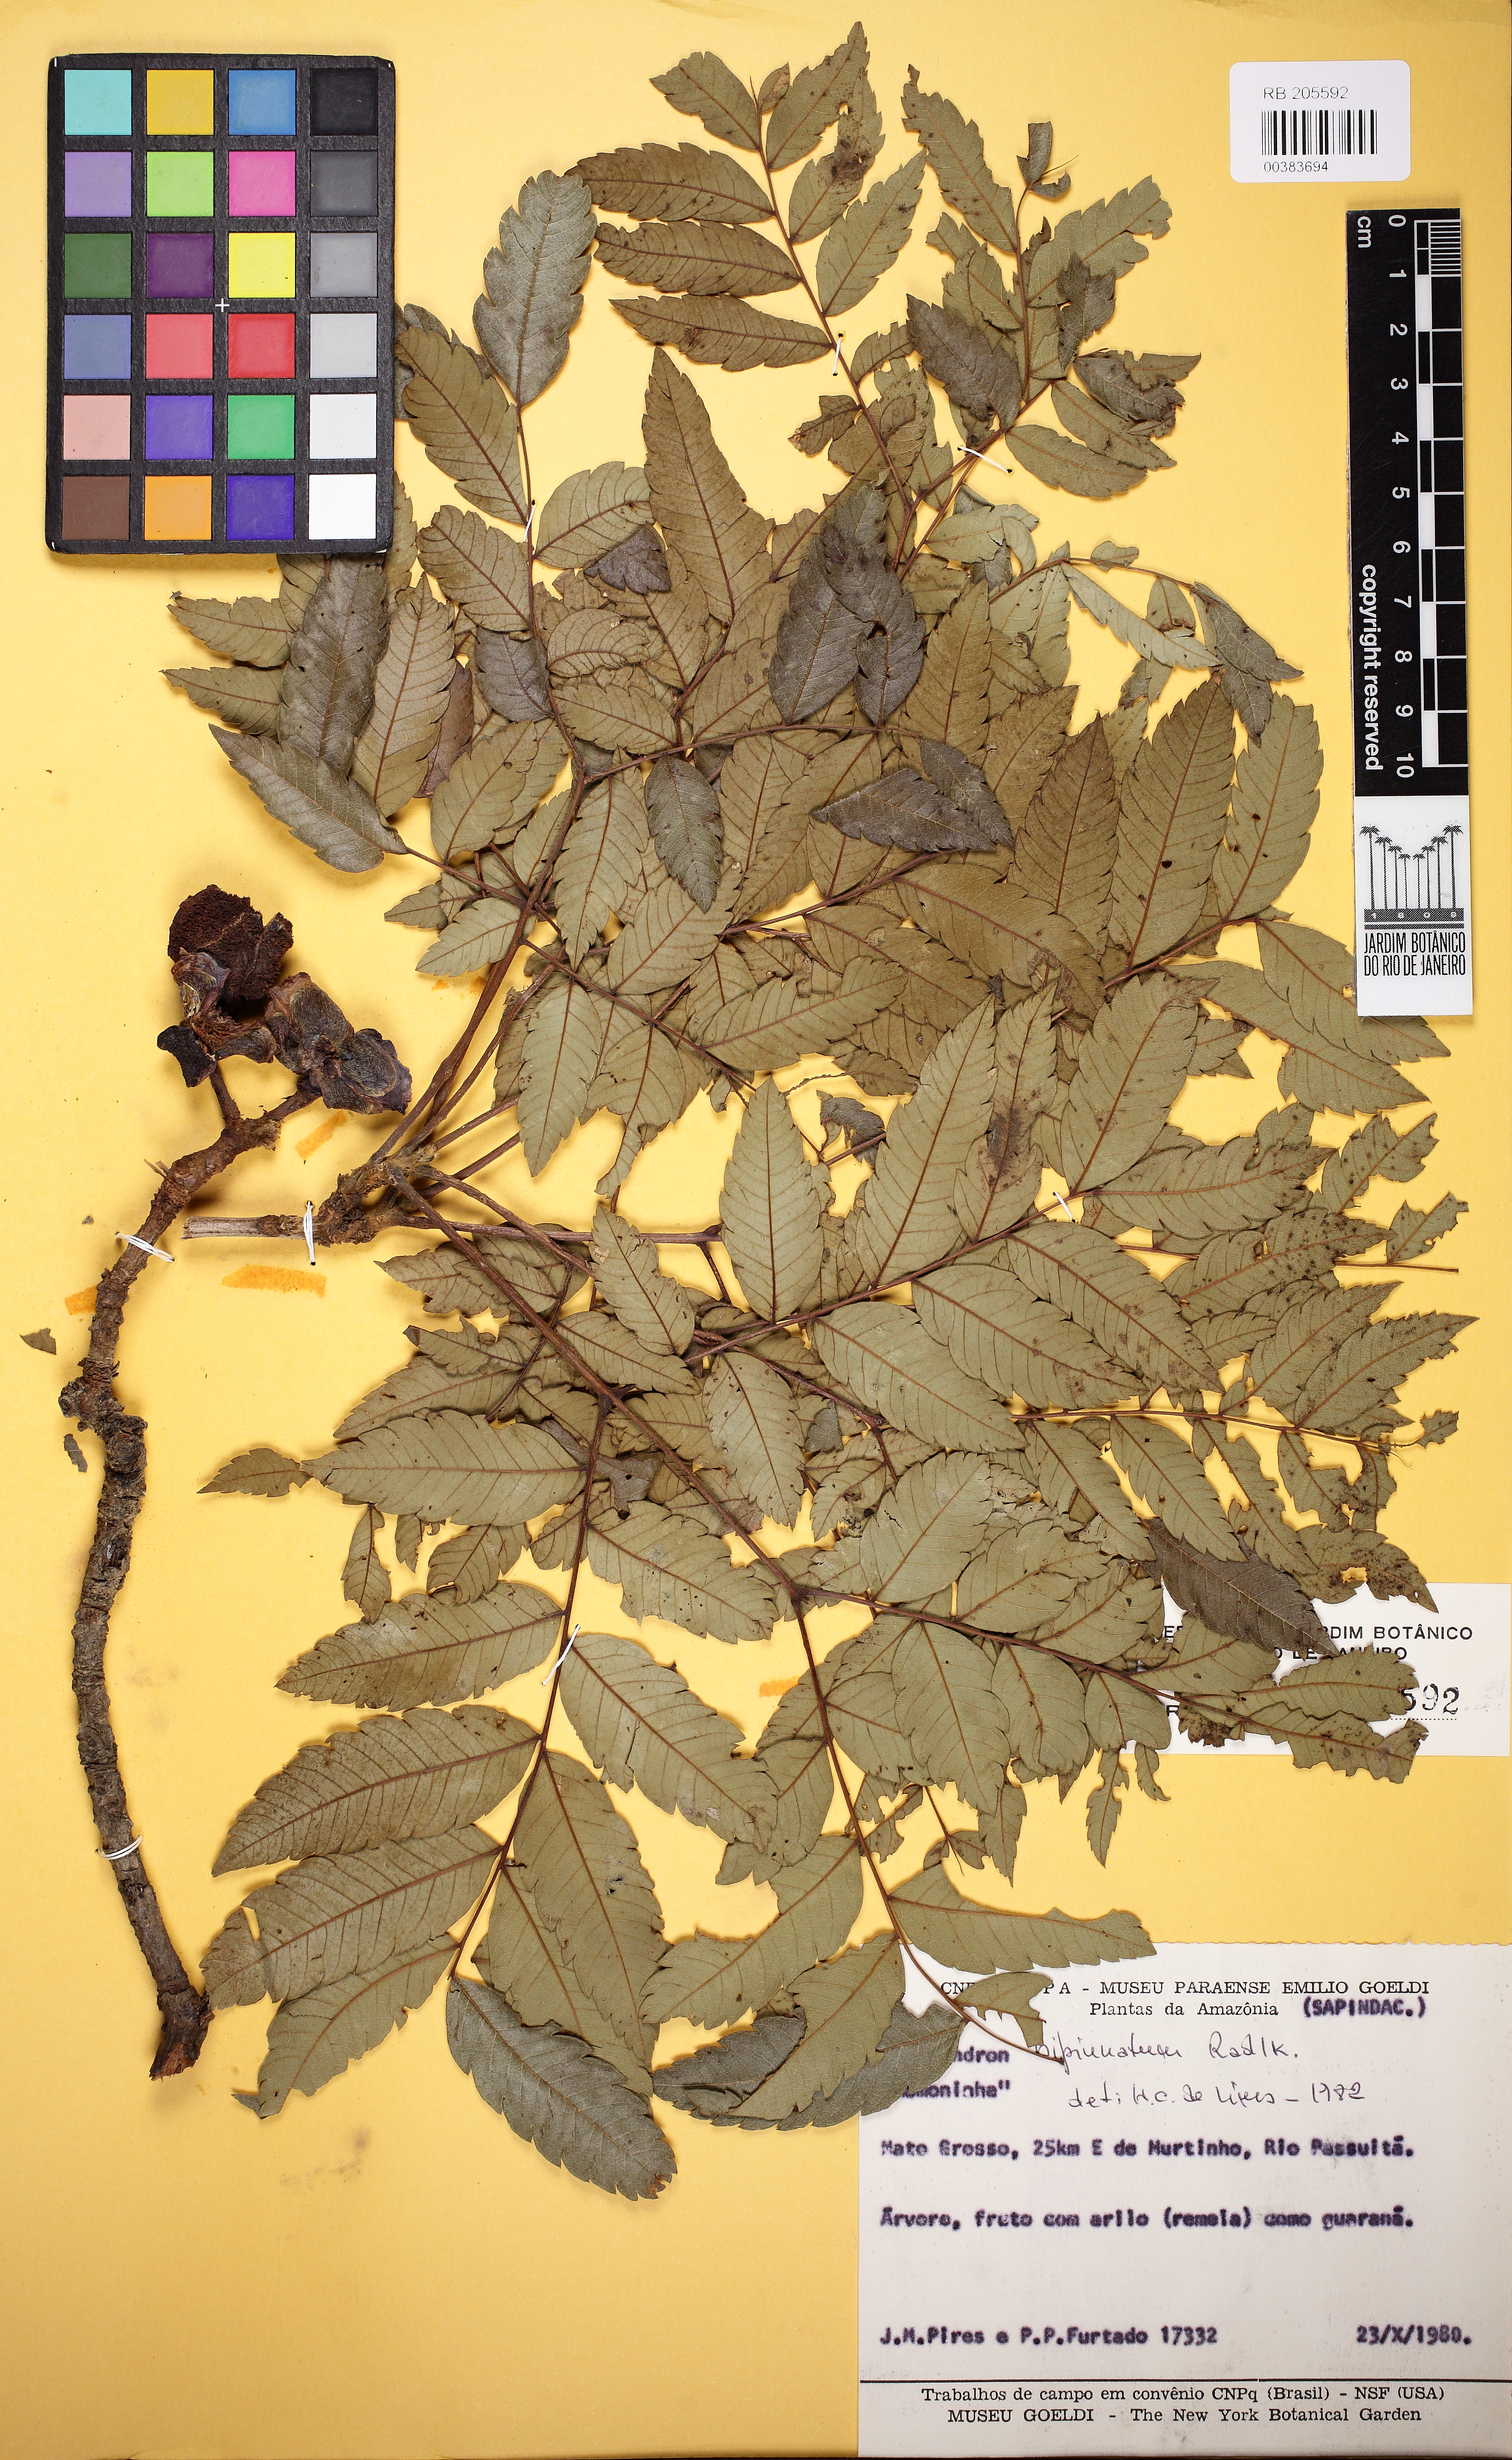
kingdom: Plantae
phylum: Tracheophyta
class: Magnoliopsida
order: Sapindales
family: Sapindaceae
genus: Dilodendron
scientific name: Dilodendron bipinnatum
